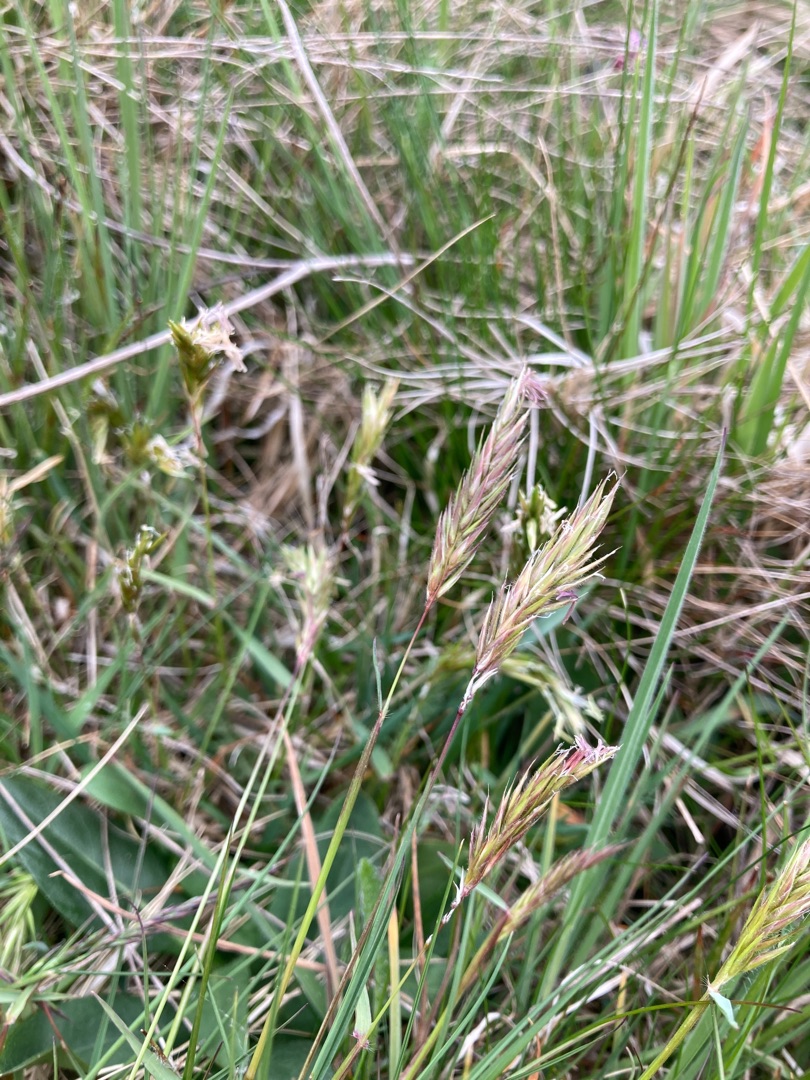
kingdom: Plantae
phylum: Tracheophyta
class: Liliopsida
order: Poales
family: Poaceae
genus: Anthoxanthum
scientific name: Anthoxanthum odoratum
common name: Vellugtende gulaks
